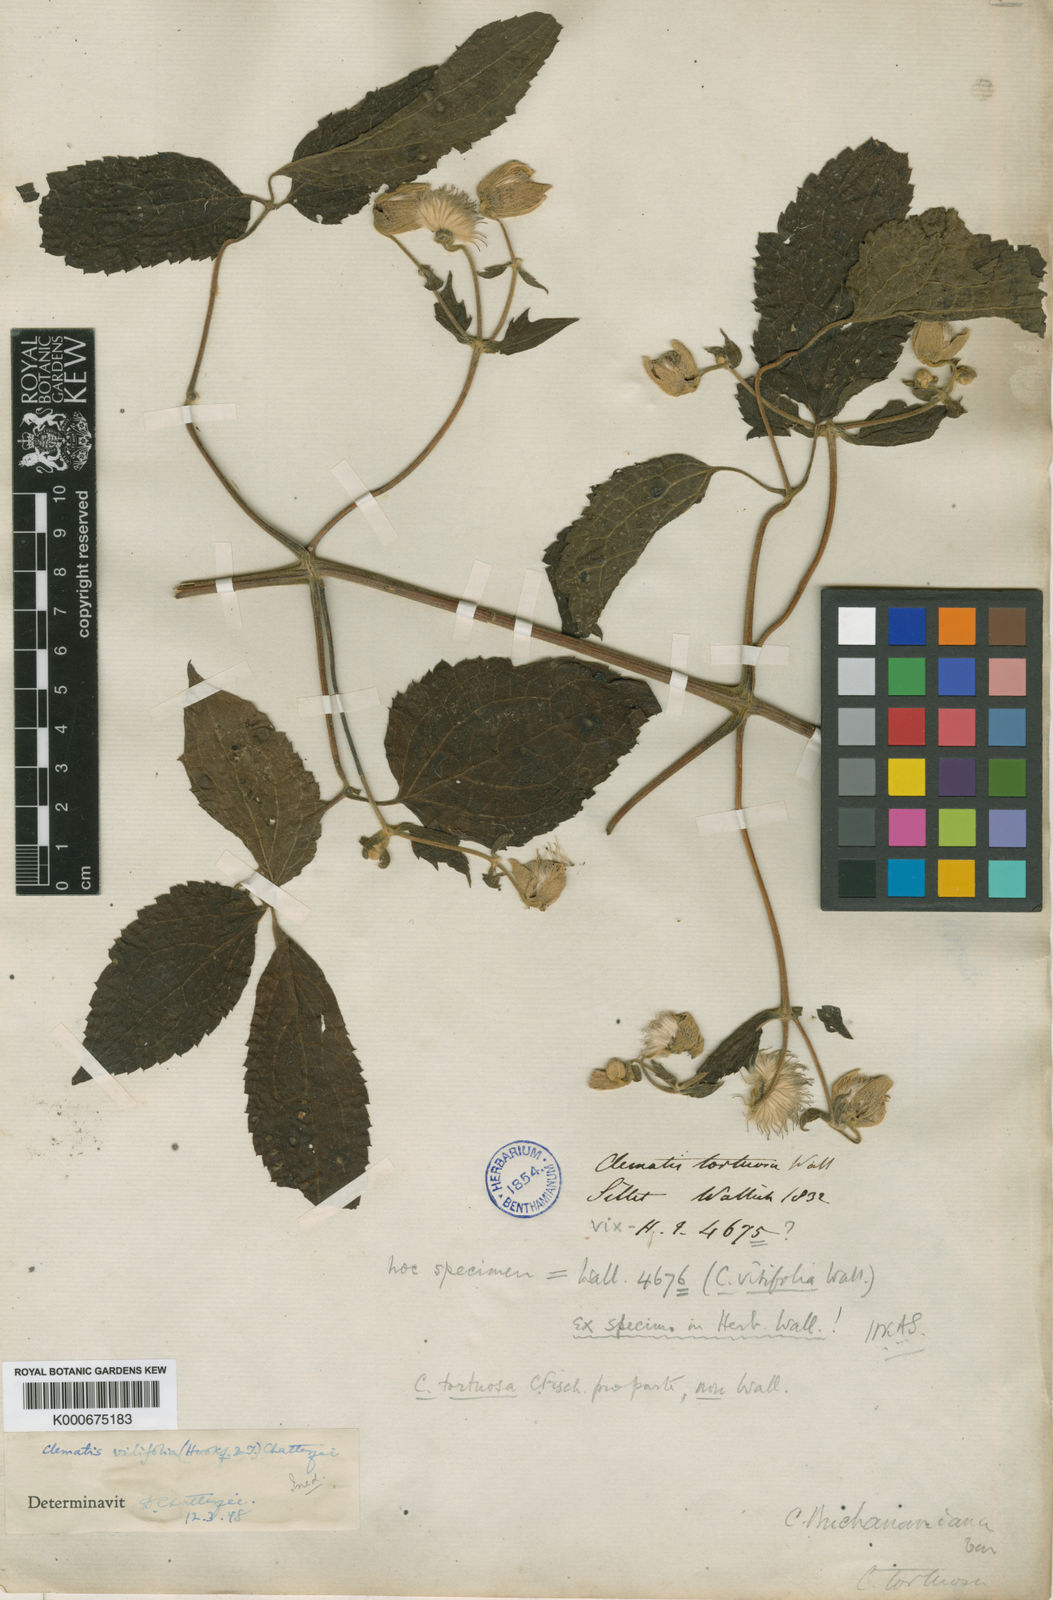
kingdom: Plantae
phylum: Tracheophyta
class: Magnoliopsida
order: Ranunculales
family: Ranunculaceae
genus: Clematis
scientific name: Clematis tortuosa
